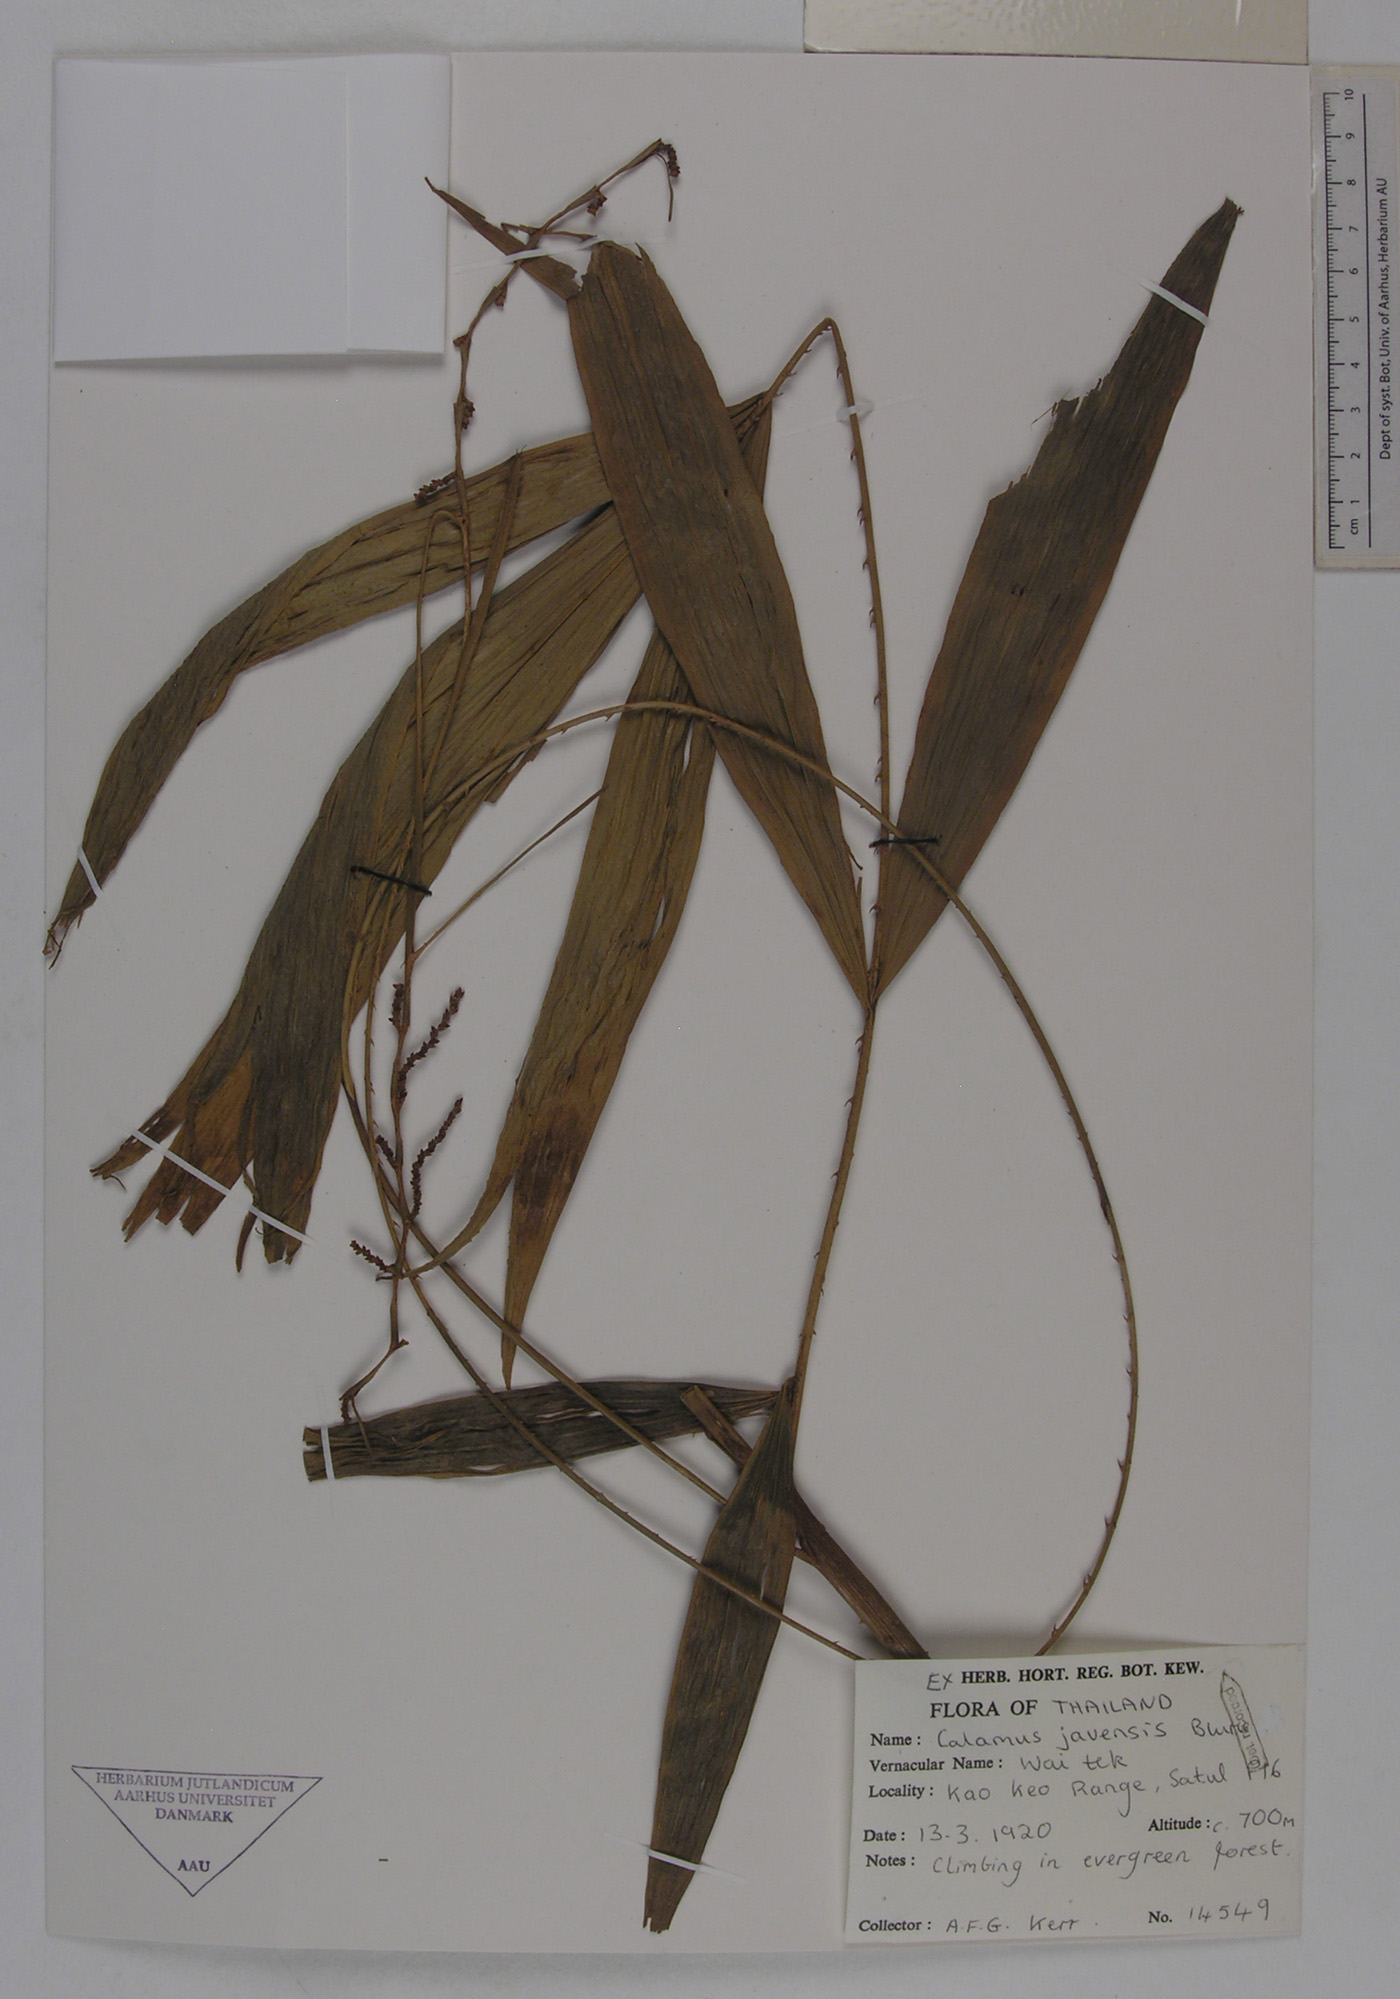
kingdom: Plantae
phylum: Tracheophyta
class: Liliopsida
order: Arecales
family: Arecaceae
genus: Calamus
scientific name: Calamus javensis
